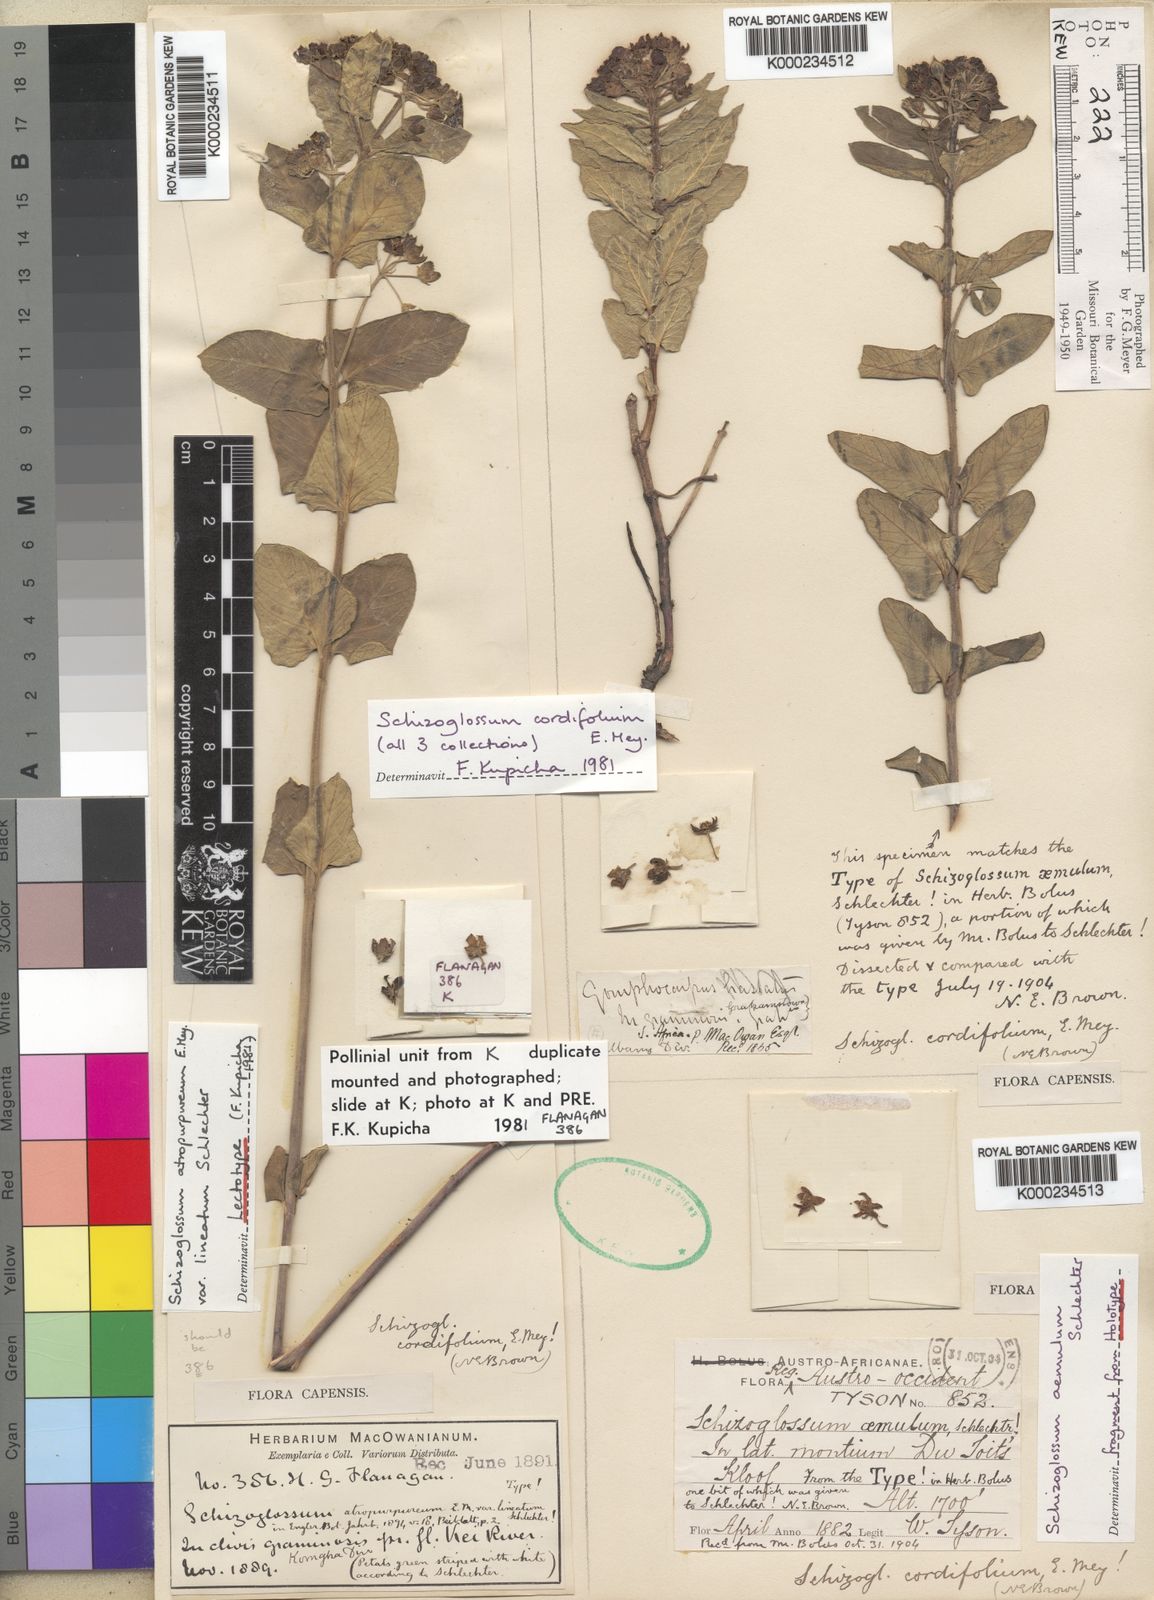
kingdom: Plantae
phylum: Tracheophyta
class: Magnoliopsida
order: Gentianales
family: Apocynaceae
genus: Schizoglossum
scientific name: Schizoglossum cordifolium
